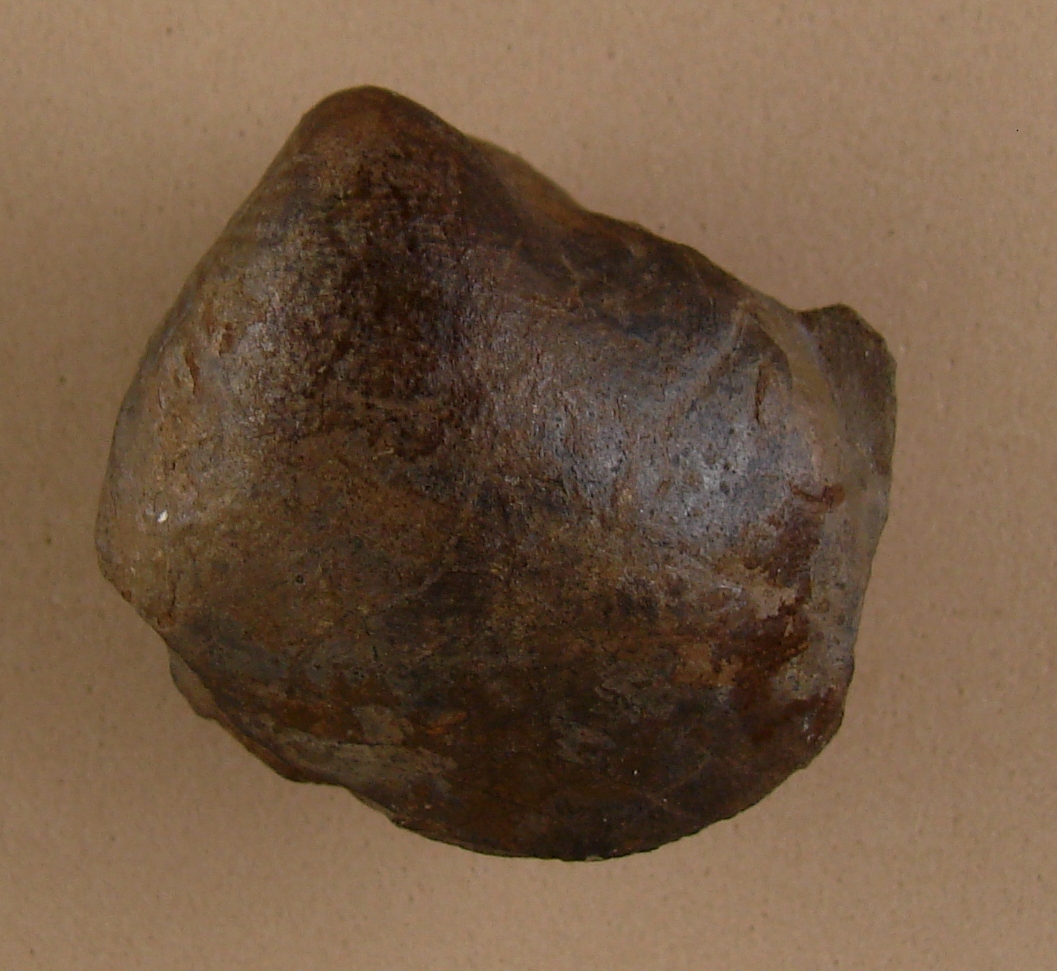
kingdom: Animalia
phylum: Mollusca
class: Bivalvia
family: Sanguinolitidae
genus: Wilkingia
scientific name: Wilkingia Allorisma inflata
